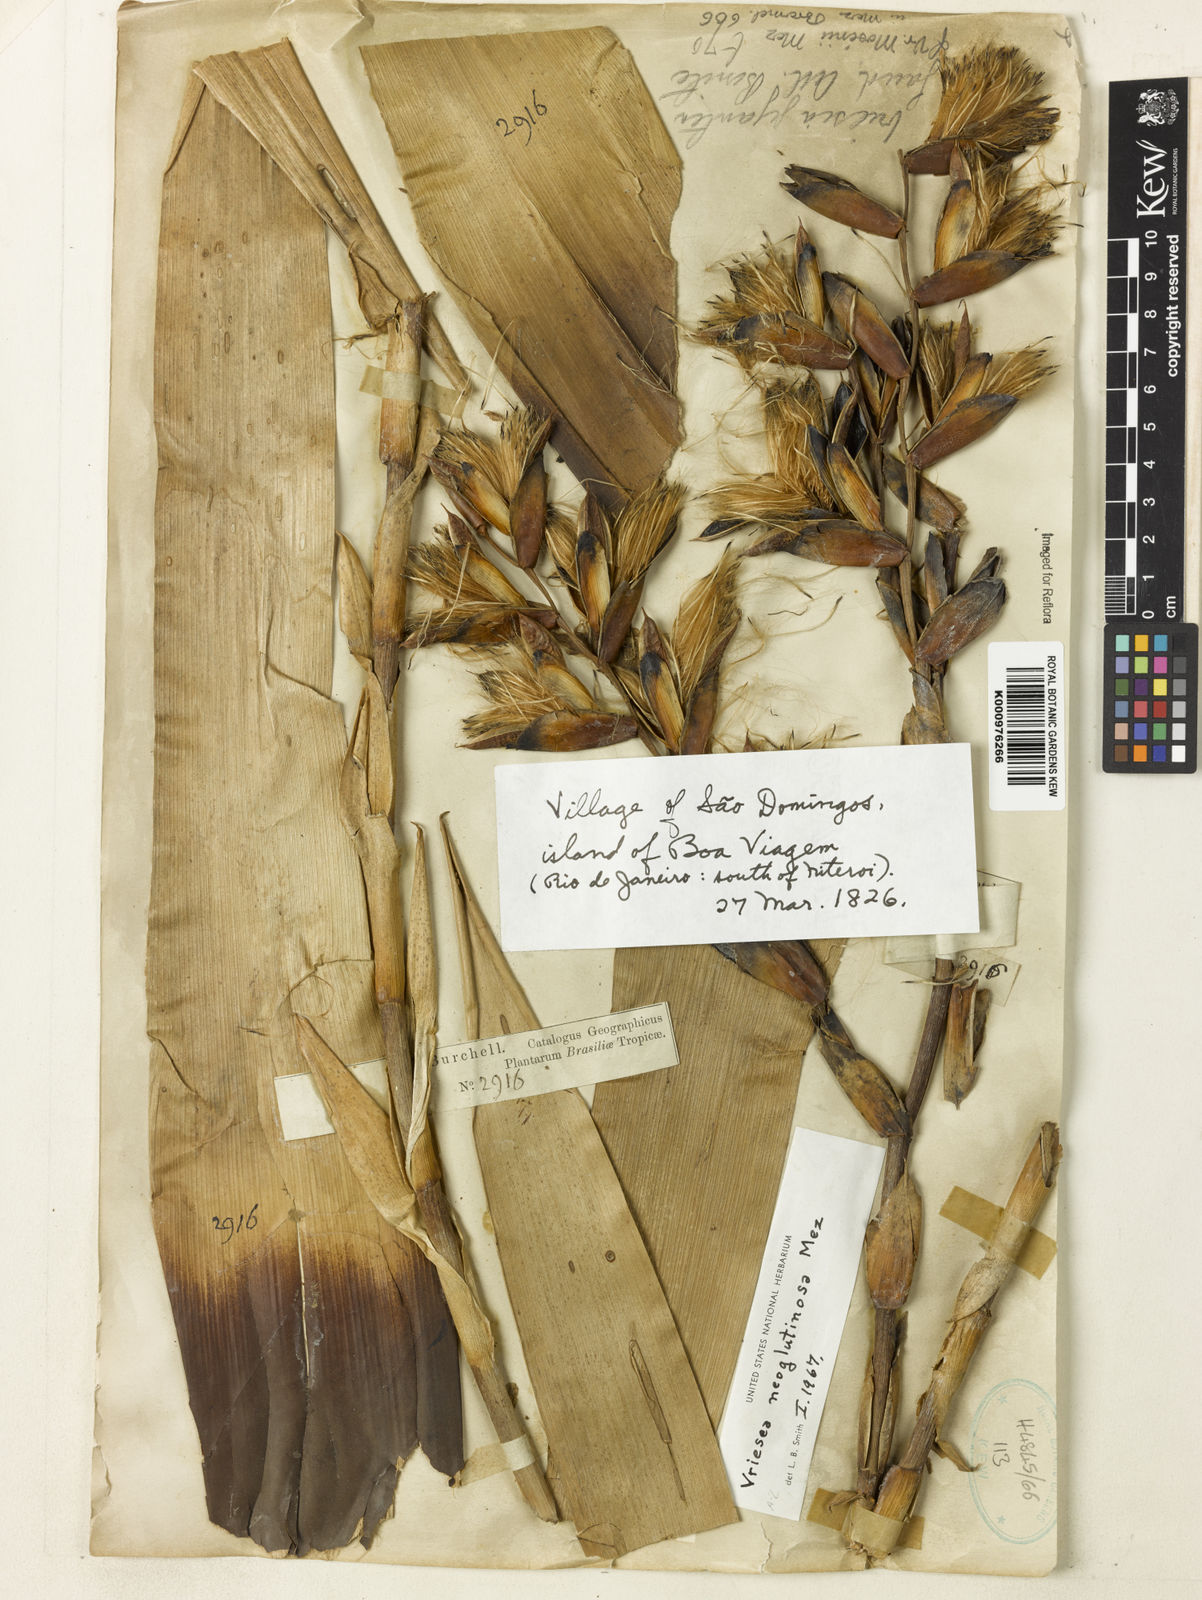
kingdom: Plantae
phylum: Tracheophyta
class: Liliopsida
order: Poales
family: Bromeliaceae
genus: Vriesea
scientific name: Vriesea neoglutinosa
